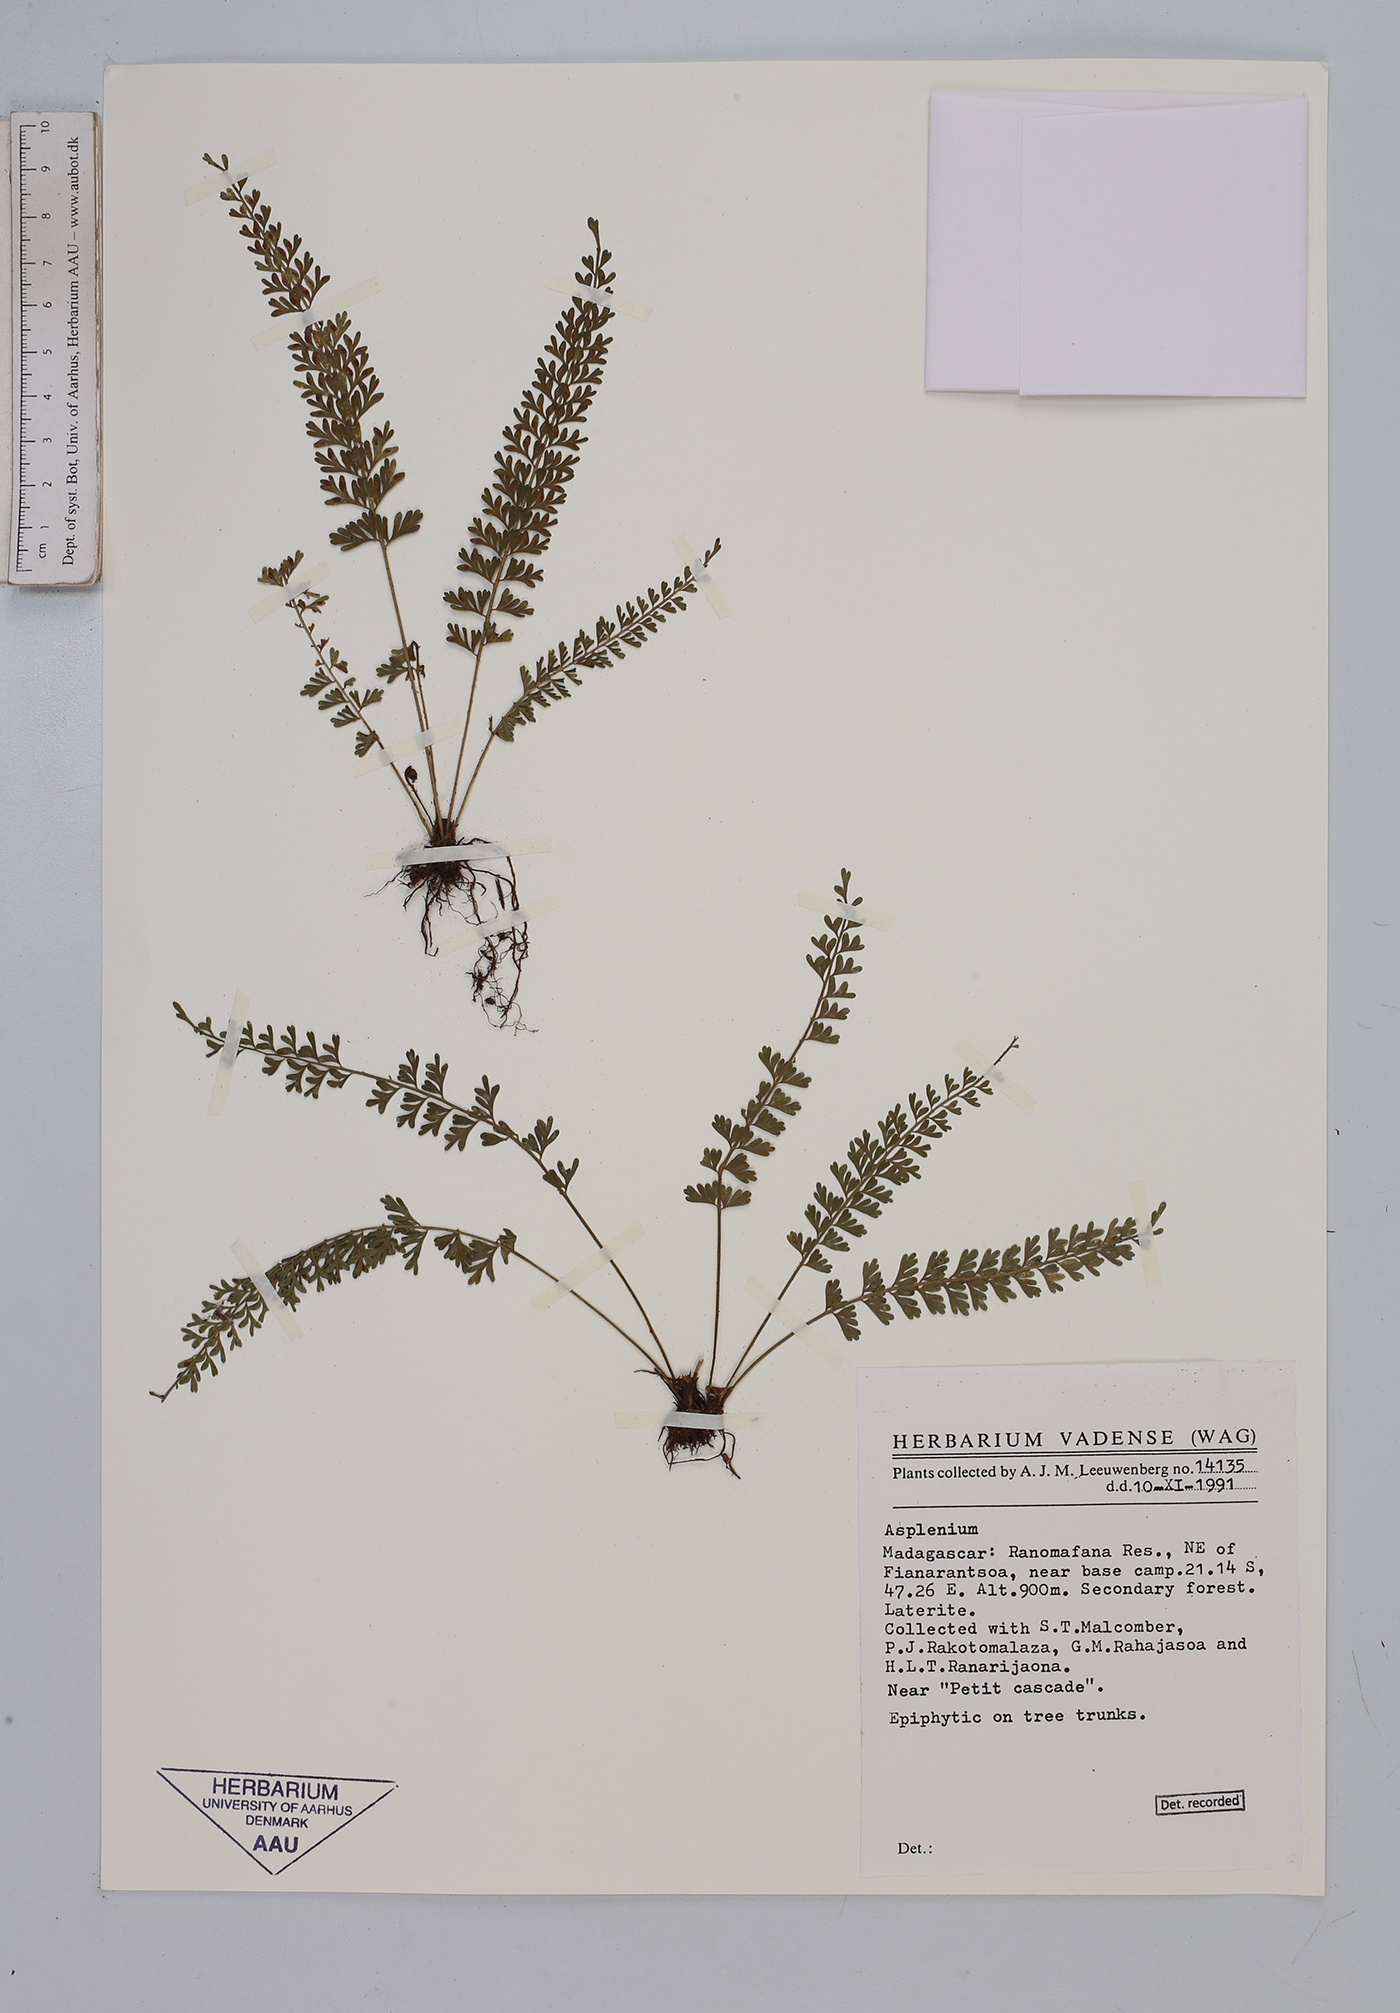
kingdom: Plantae
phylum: Tracheophyta
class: Polypodiopsida
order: Polypodiales
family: Aspleniaceae
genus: Asplenium
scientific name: Asplenium
